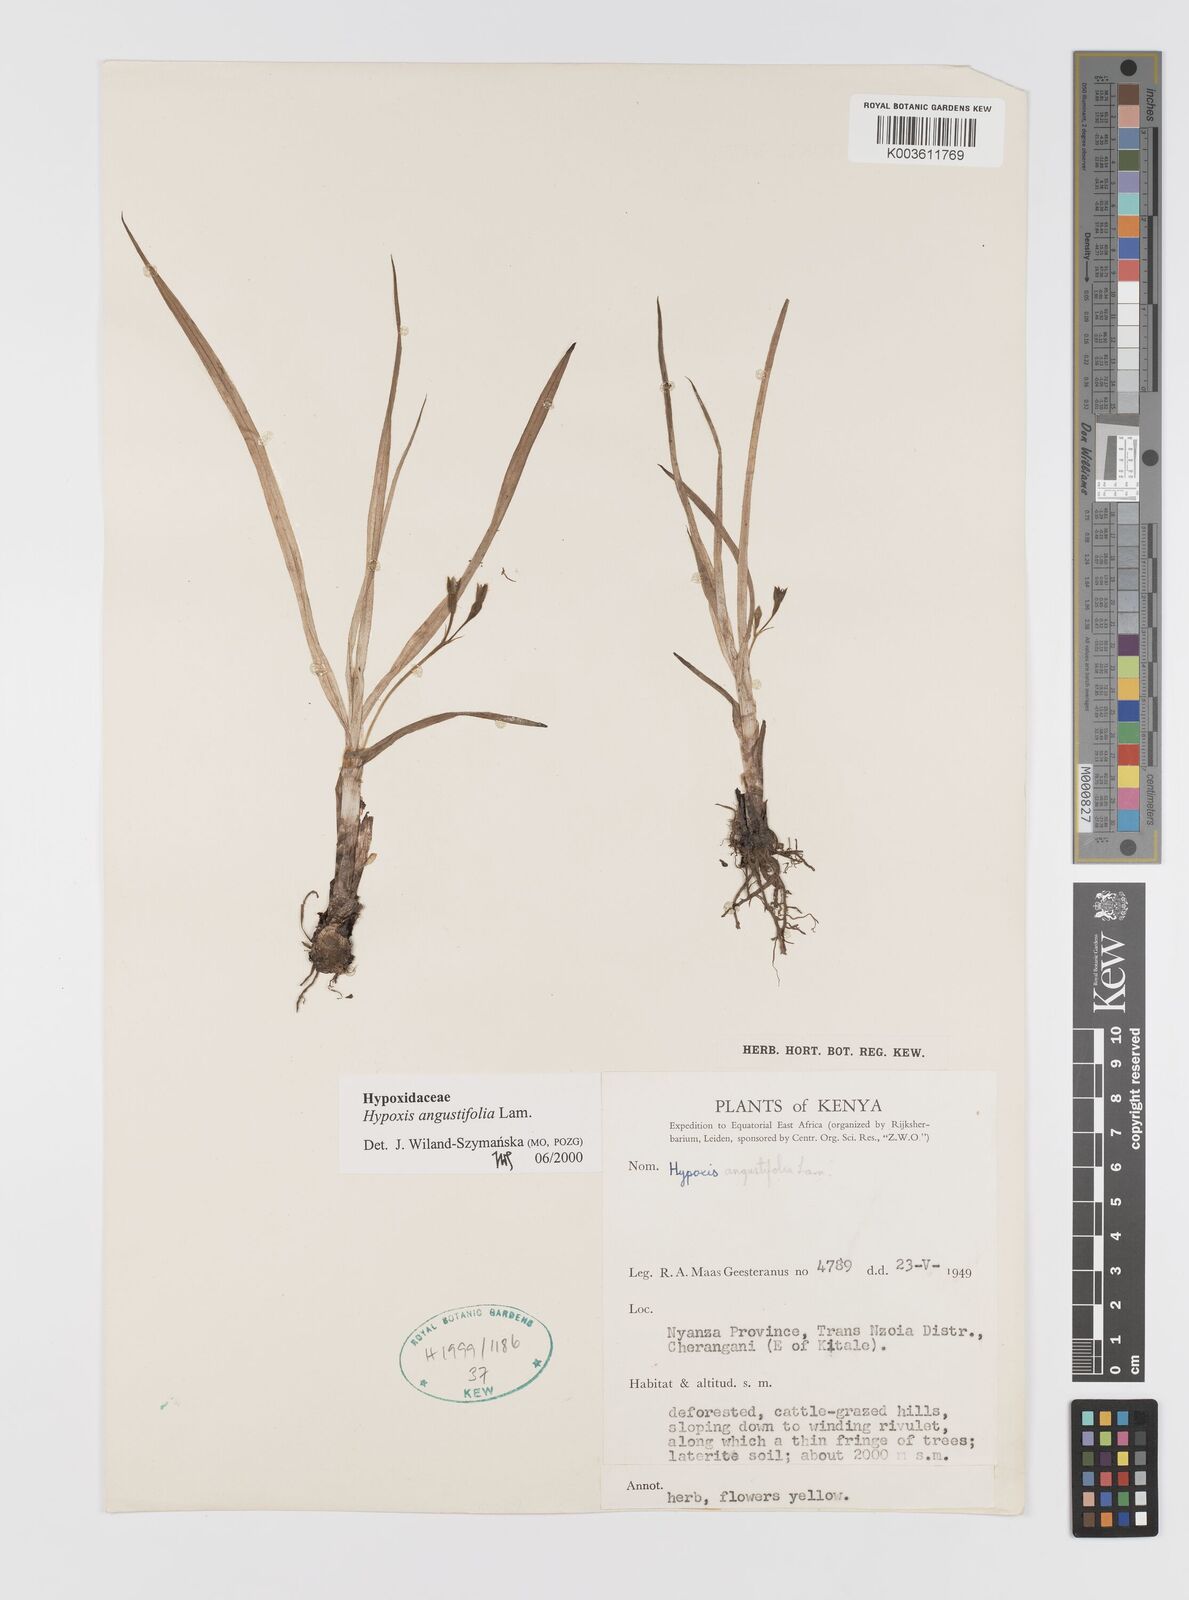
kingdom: Plantae
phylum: Tracheophyta
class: Liliopsida
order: Asparagales
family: Hypoxidaceae
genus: Hypoxis
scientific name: Hypoxis angustifolia
